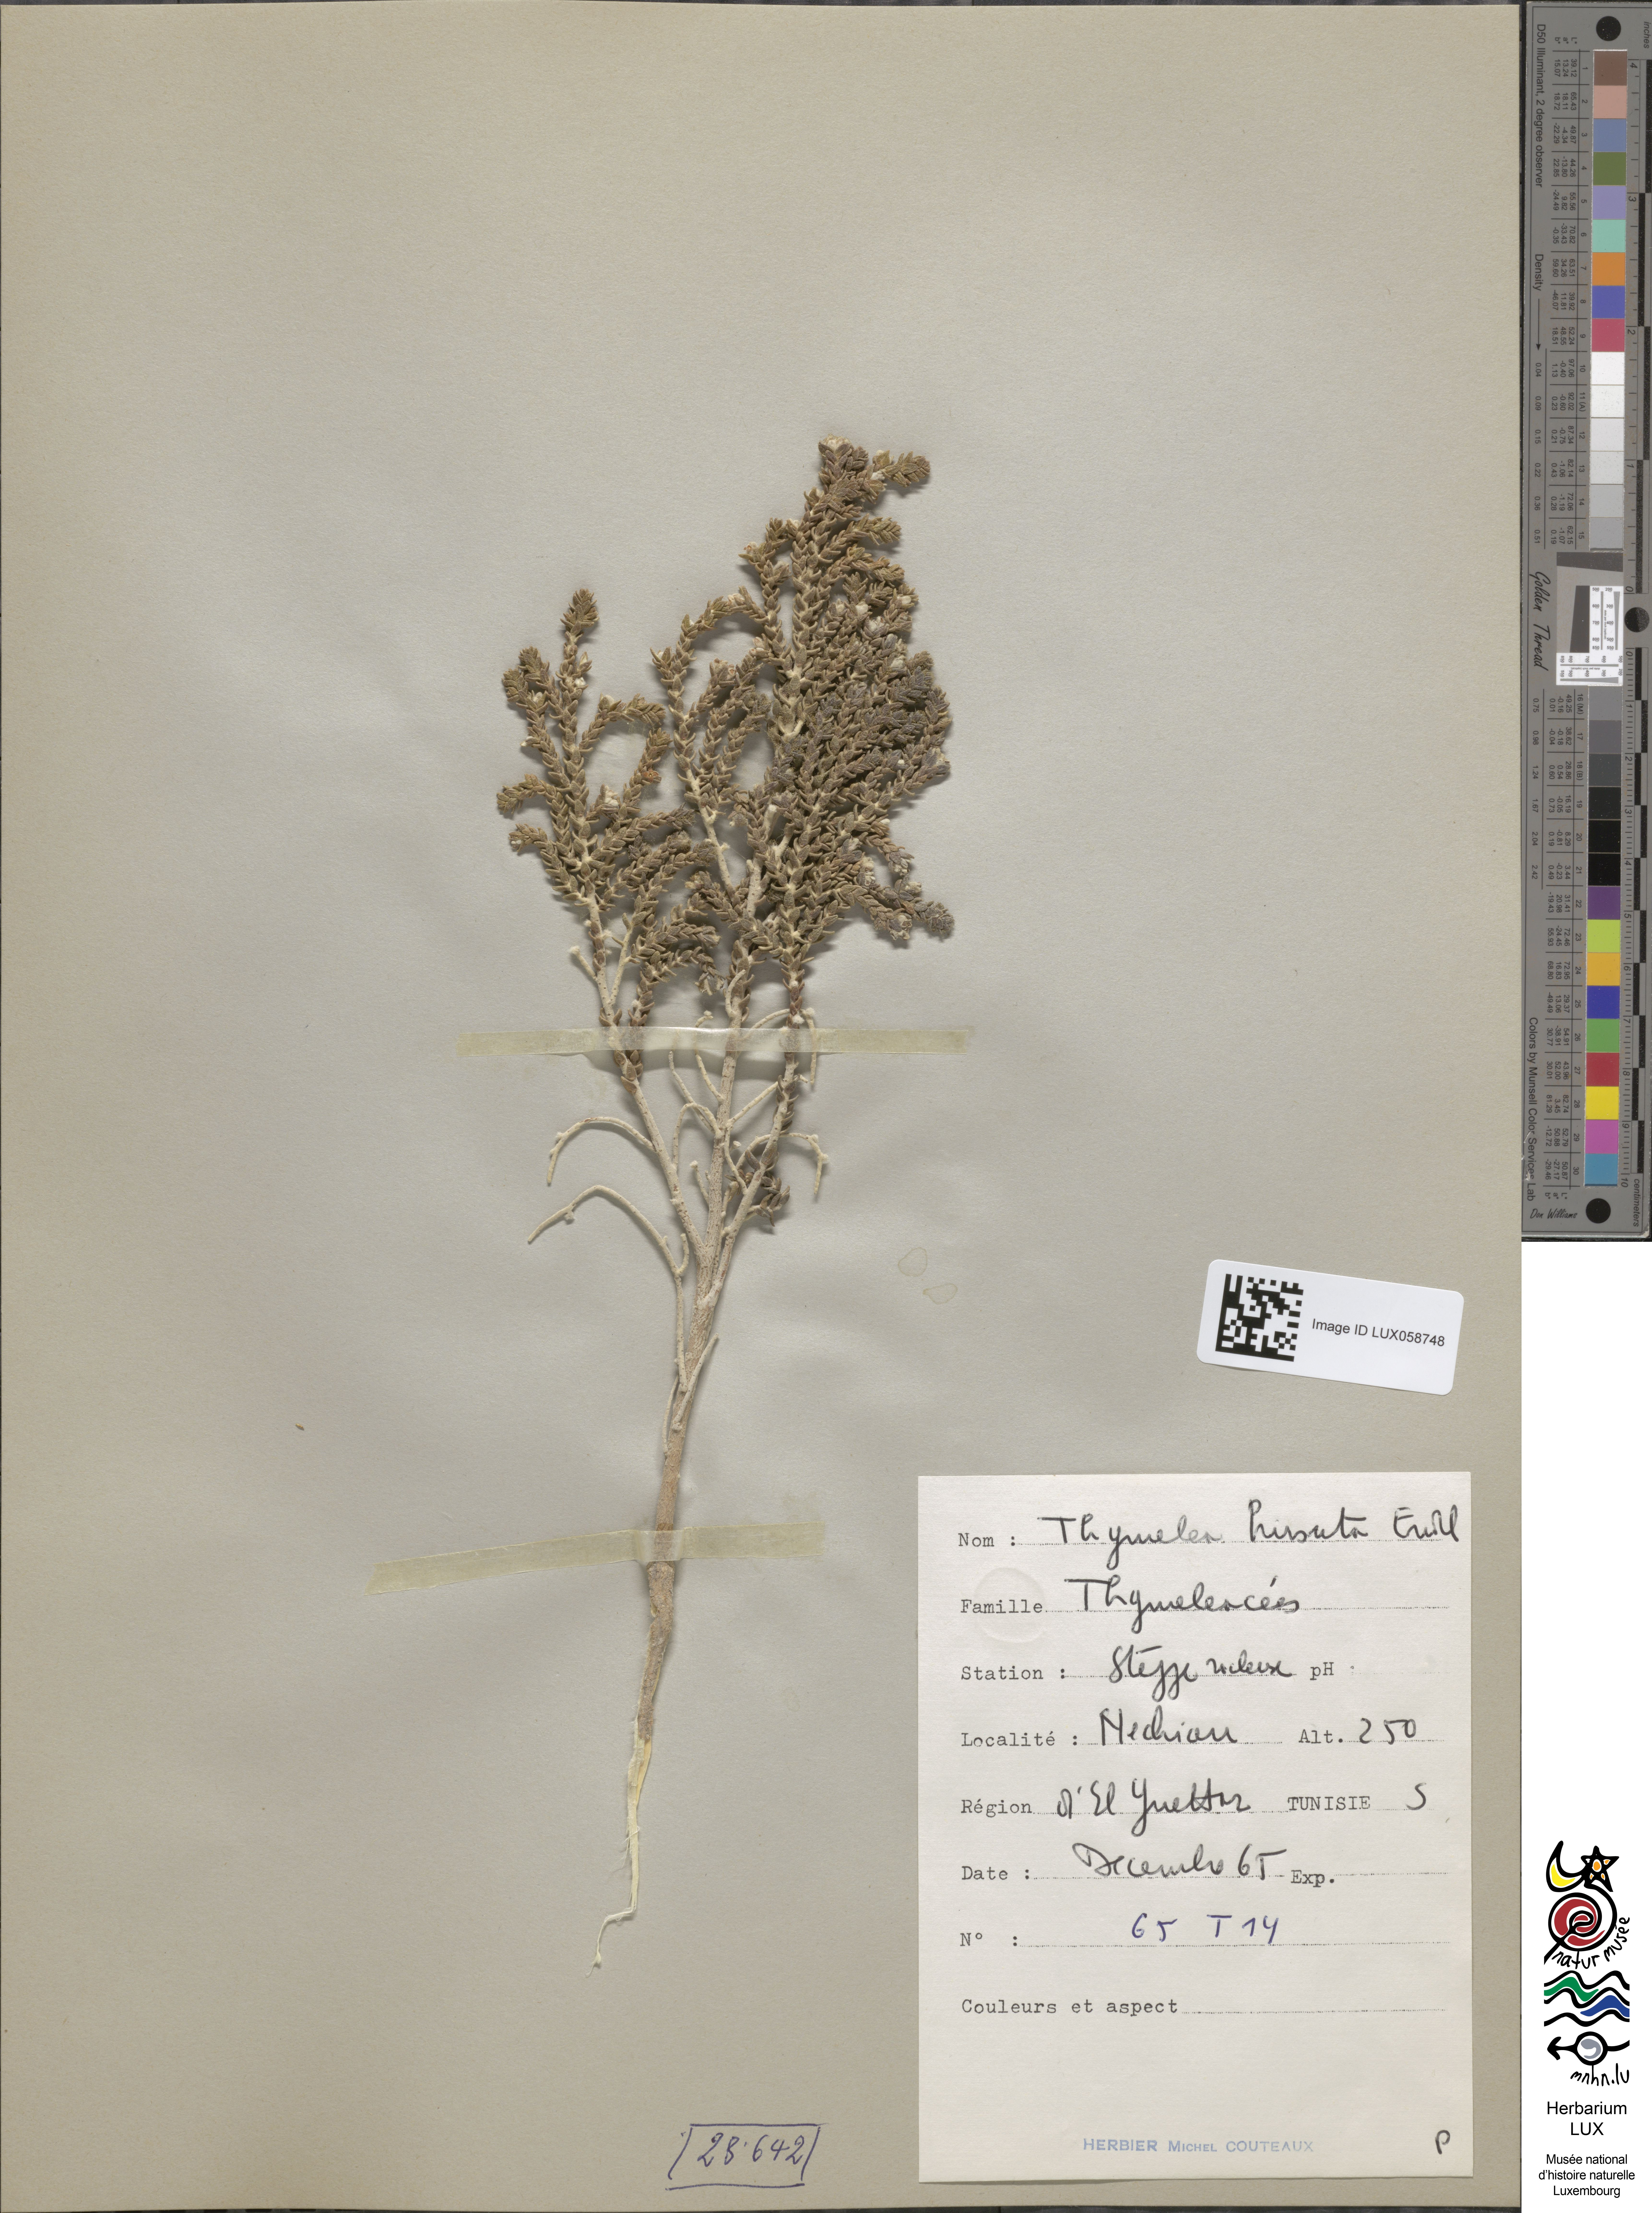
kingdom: Plantae
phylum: Tracheophyta
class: Magnoliopsida
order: Malvales
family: Thymelaeaceae
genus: Thymelaea
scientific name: Thymelaea hirsuta
